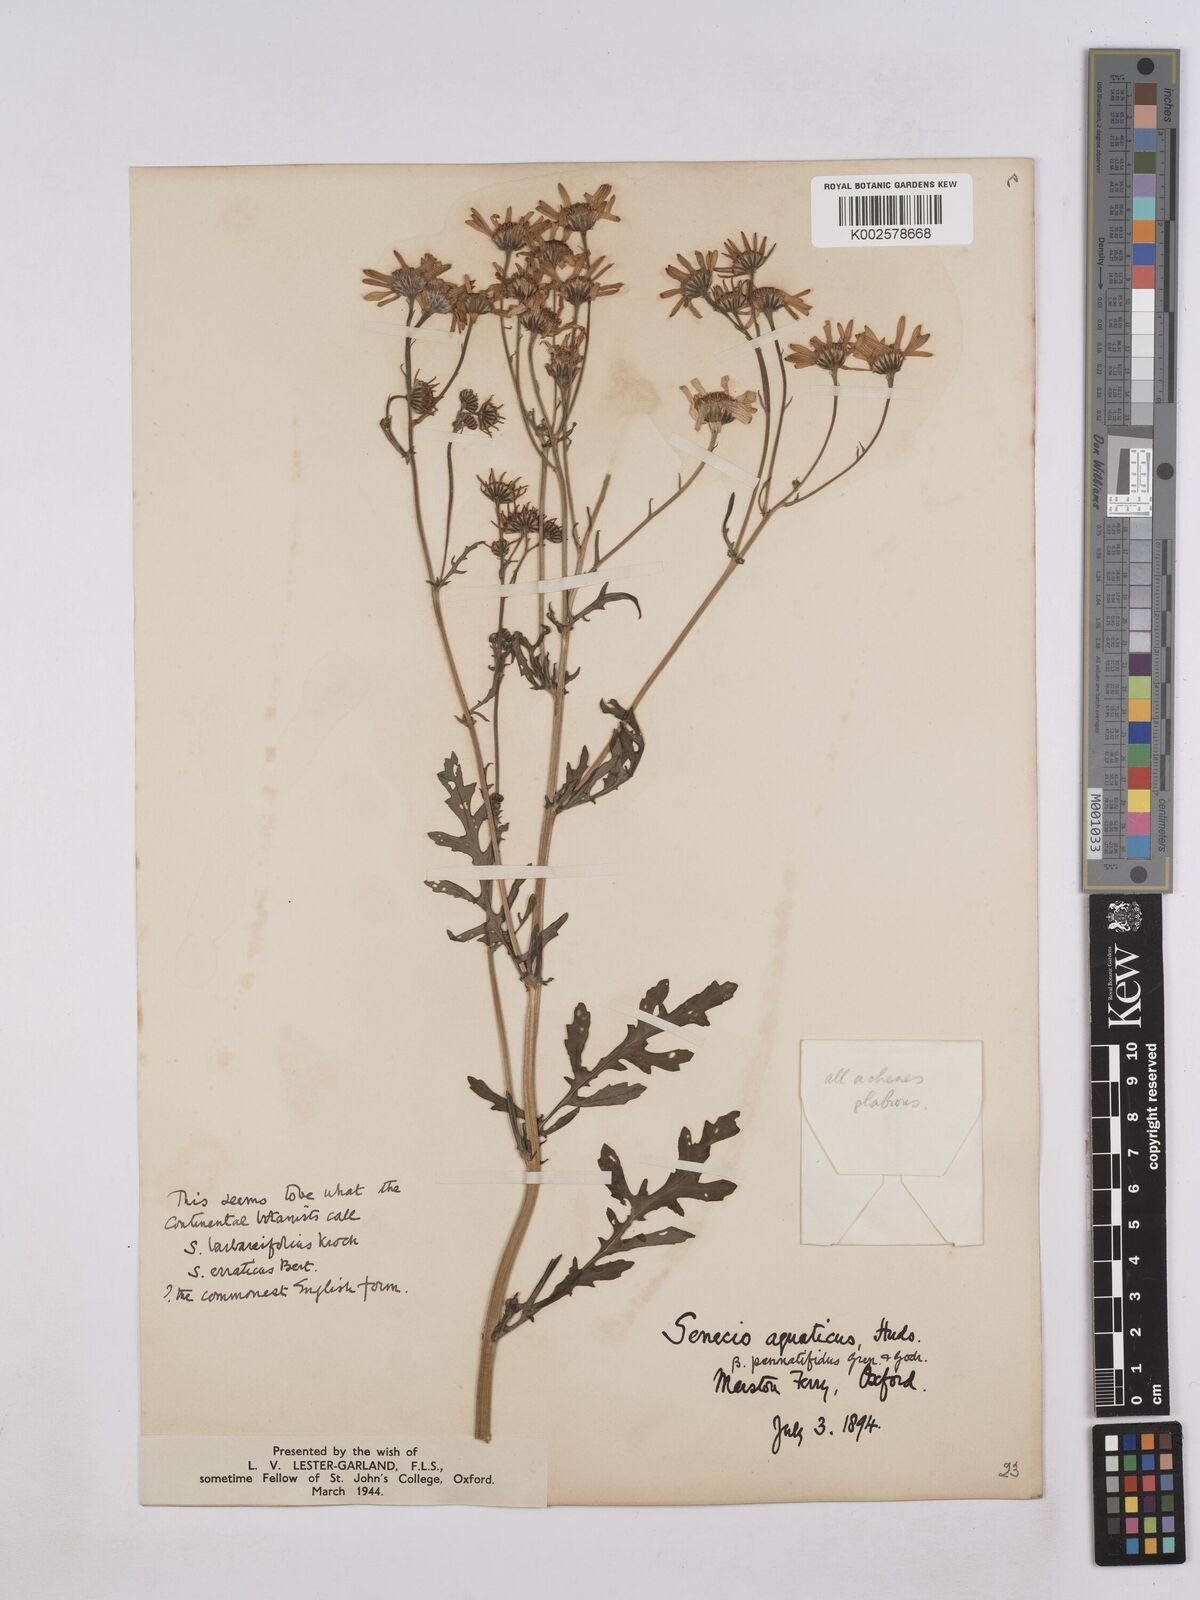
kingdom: Plantae
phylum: Tracheophyta
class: Magnoliopsida
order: Asterales
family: Asteraceae
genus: Jacobaea
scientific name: Jacobaea aquatica
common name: Water ragwort
